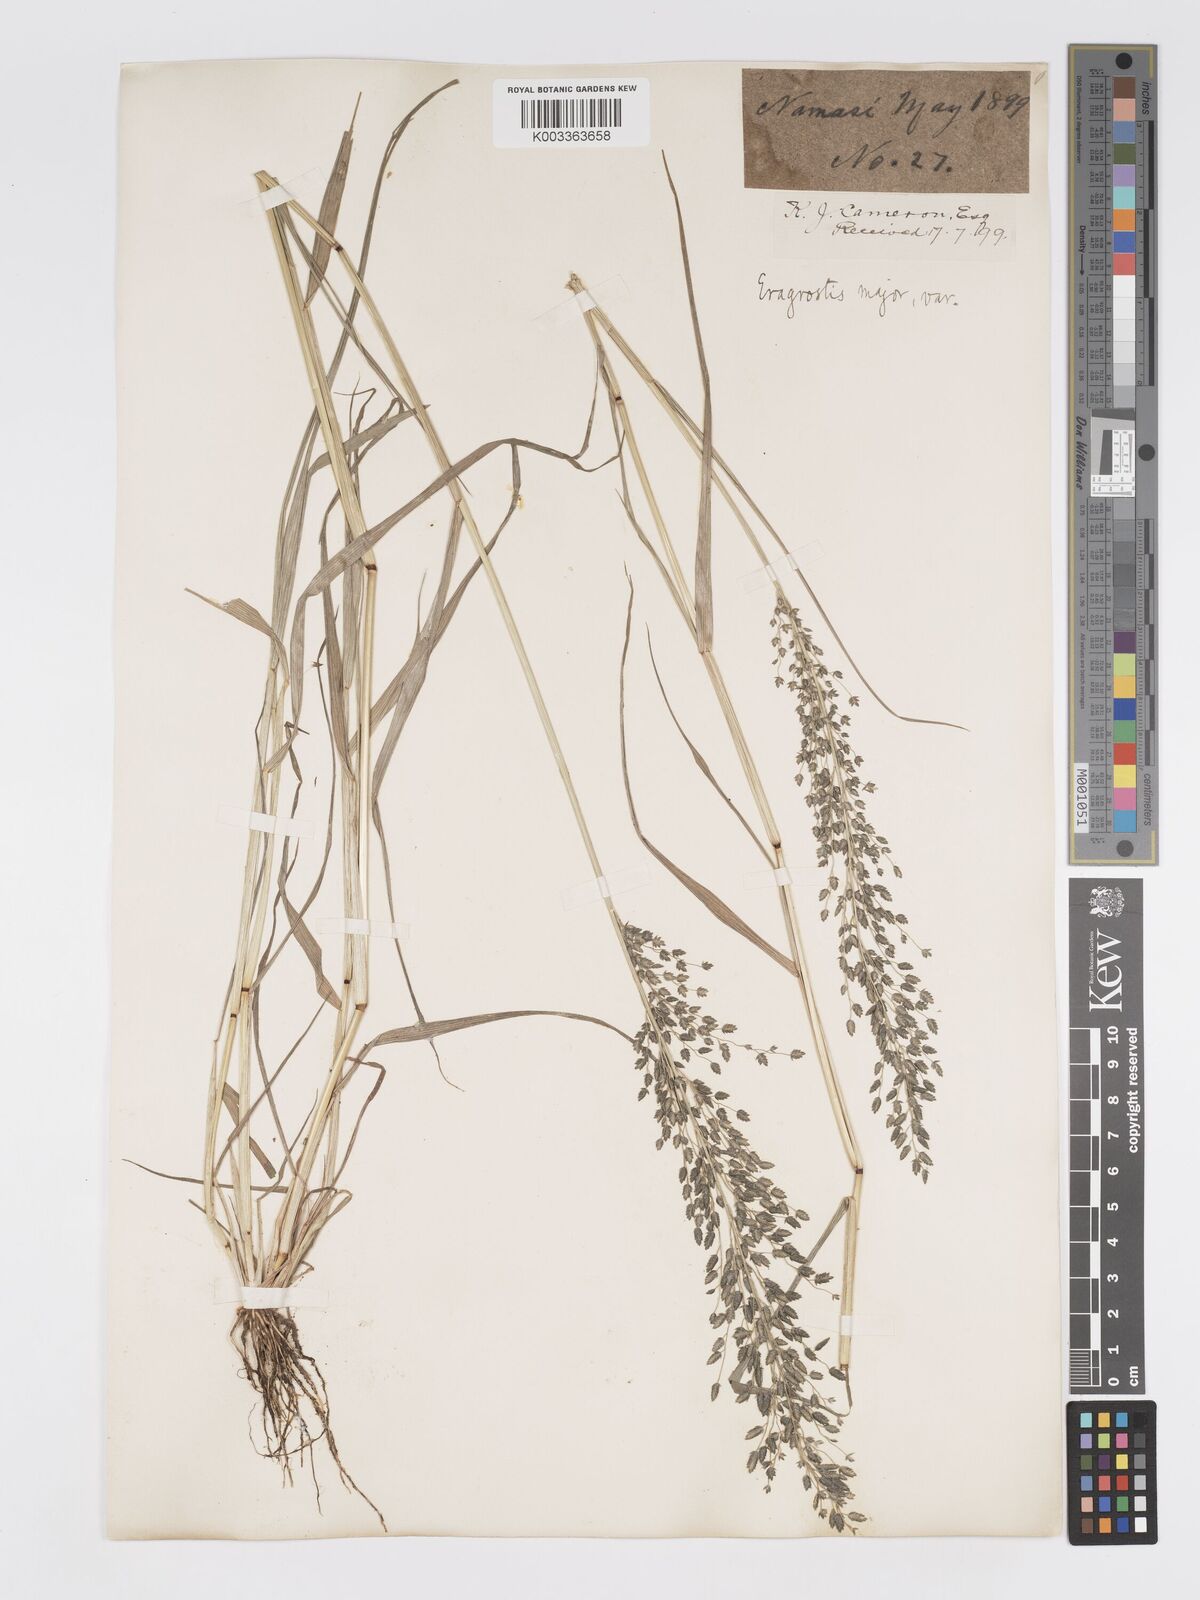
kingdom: Plantae
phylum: Tracheophyta
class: Liliopsida
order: Poales
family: Poaceae
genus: Eragrostis
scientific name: Eragrostis cilianensis
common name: Stinkgrass
